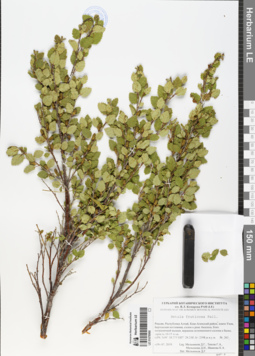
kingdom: Plantae
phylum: Tracheophyta
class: Magnoliopsida
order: Fagales
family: Betulaceae
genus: Betula
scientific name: Betula fruticosa
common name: Japanese bog birch
